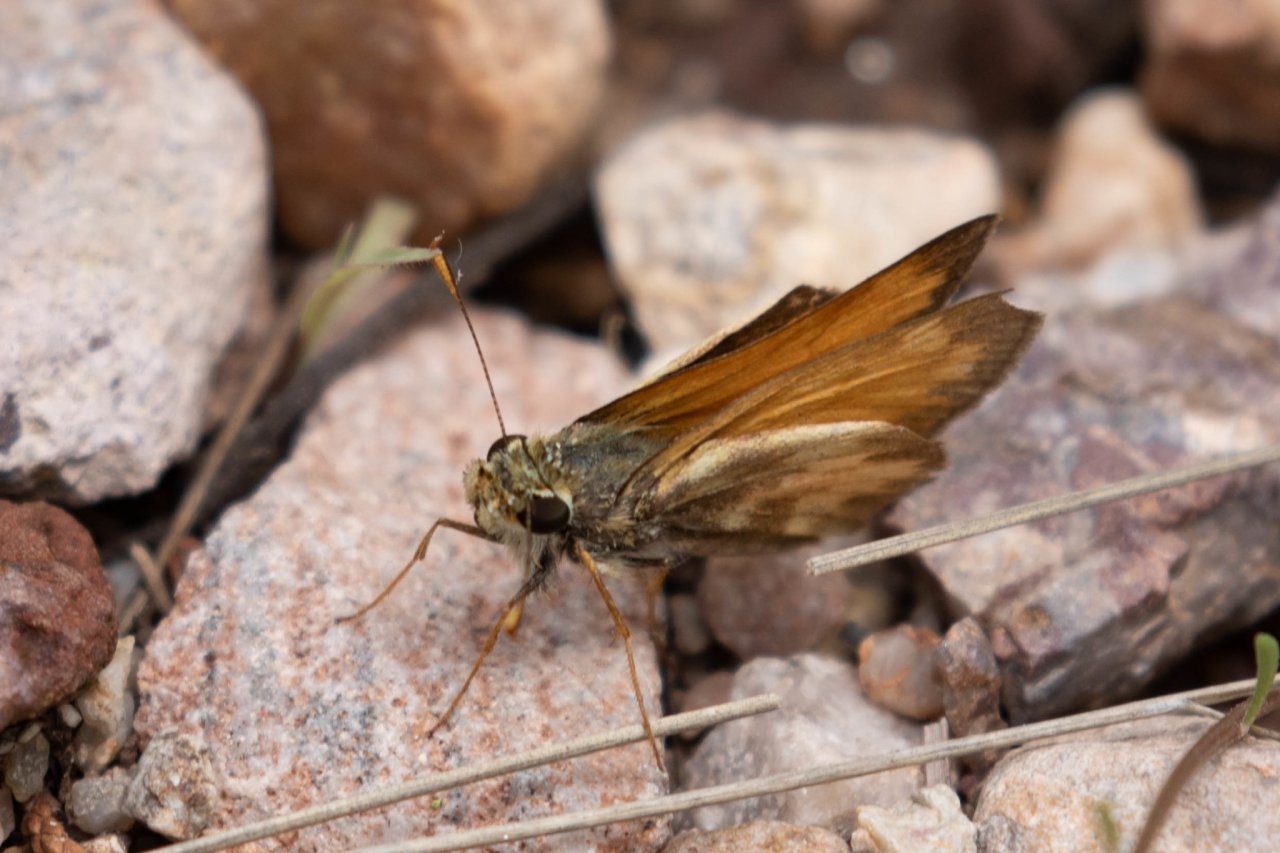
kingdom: Animalia
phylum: Arthropoda
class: Insecta
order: Lepidoptera
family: Hesperiidae
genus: Lon
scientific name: Lon taxiles
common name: Taxiles Skipper
